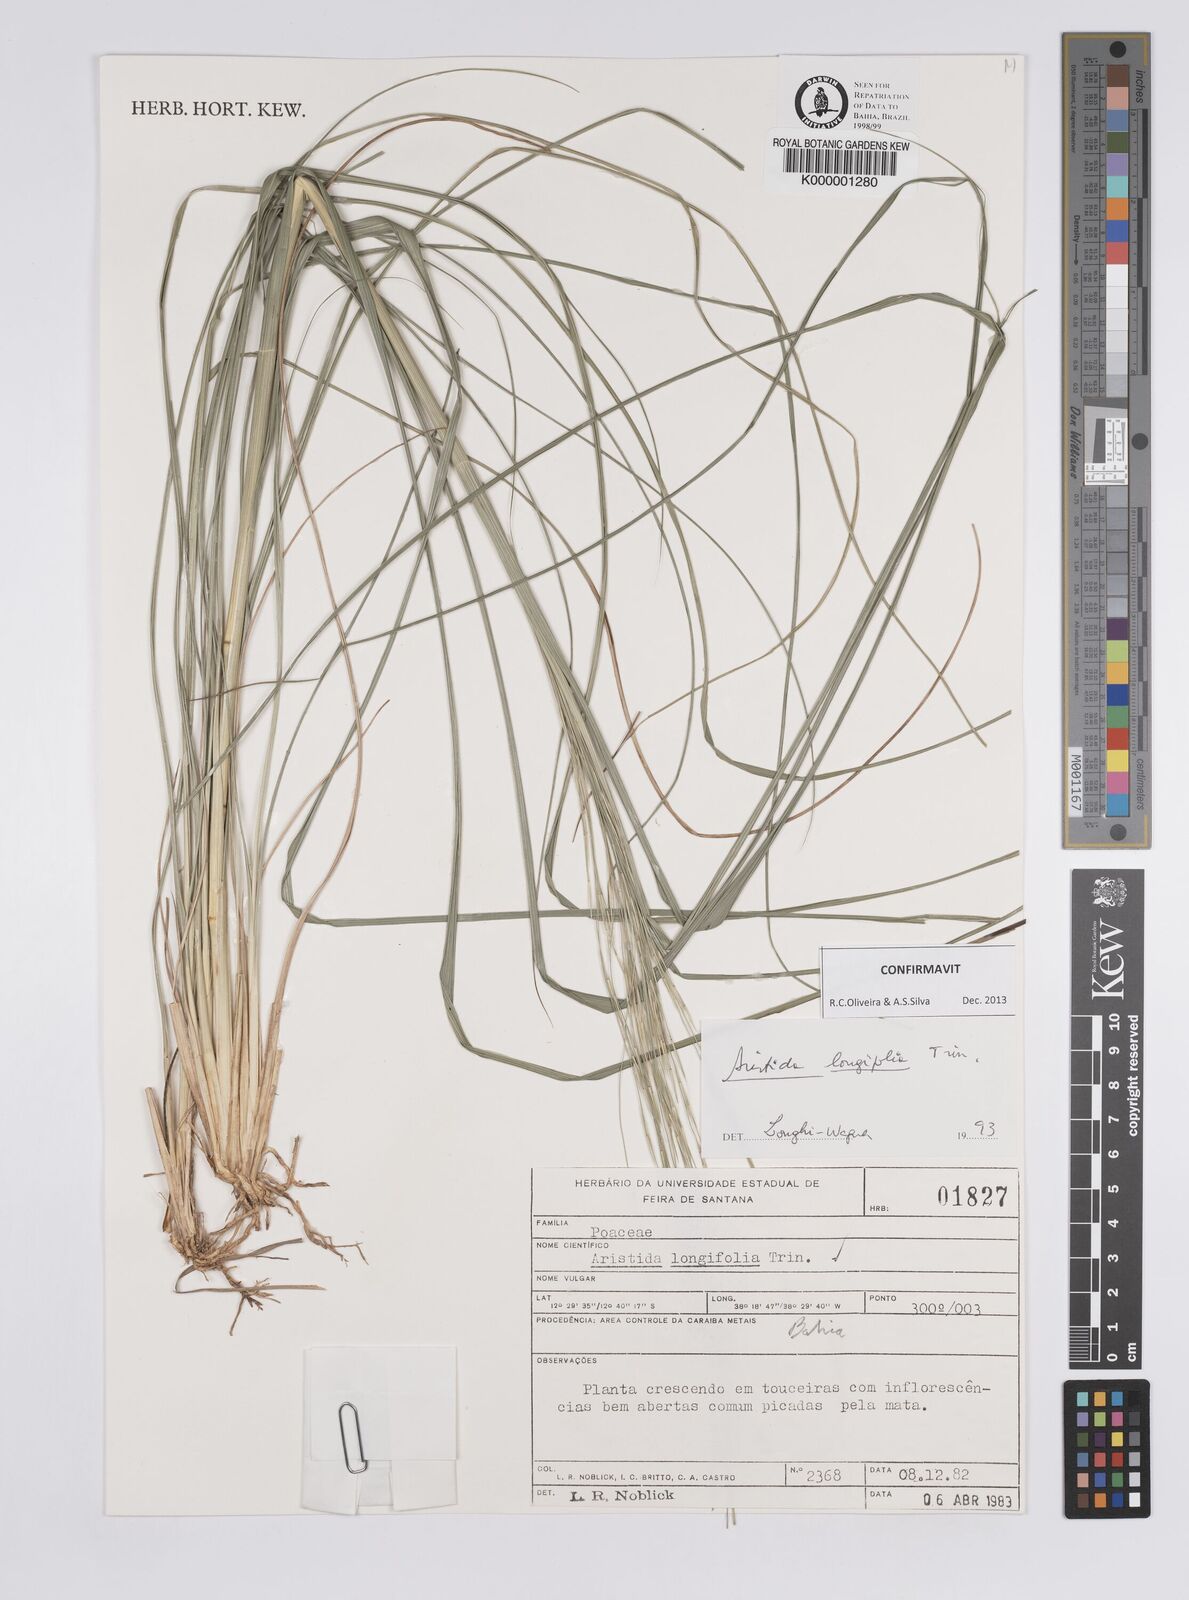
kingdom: Plantae
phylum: Tracheophyta
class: Liliopsida
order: Poales
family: Poaceae
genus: Aristida
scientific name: Aristida longifolia
